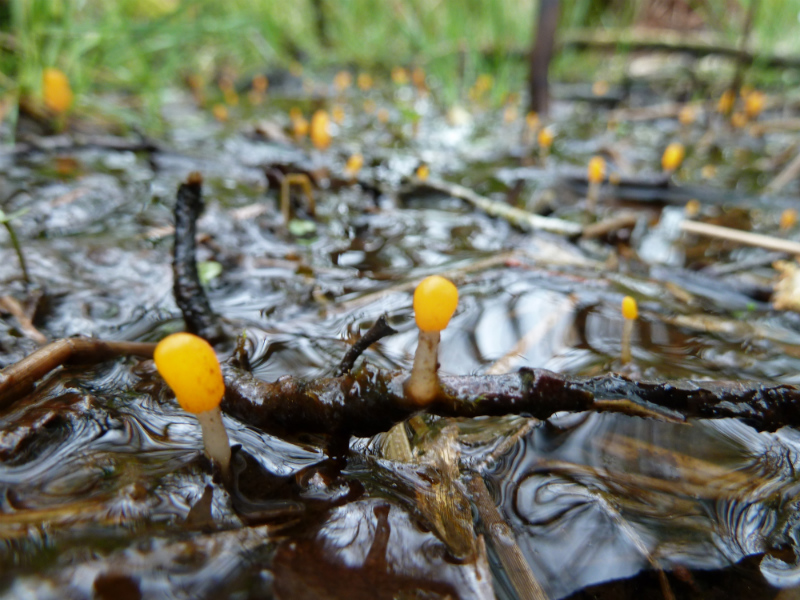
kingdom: Fungi
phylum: Ascomycota
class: Leotiomycetes
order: Helotiales
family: Cenangiaceae
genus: Mitrula
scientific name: Mitrula paludosa
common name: gul nøkketunge
